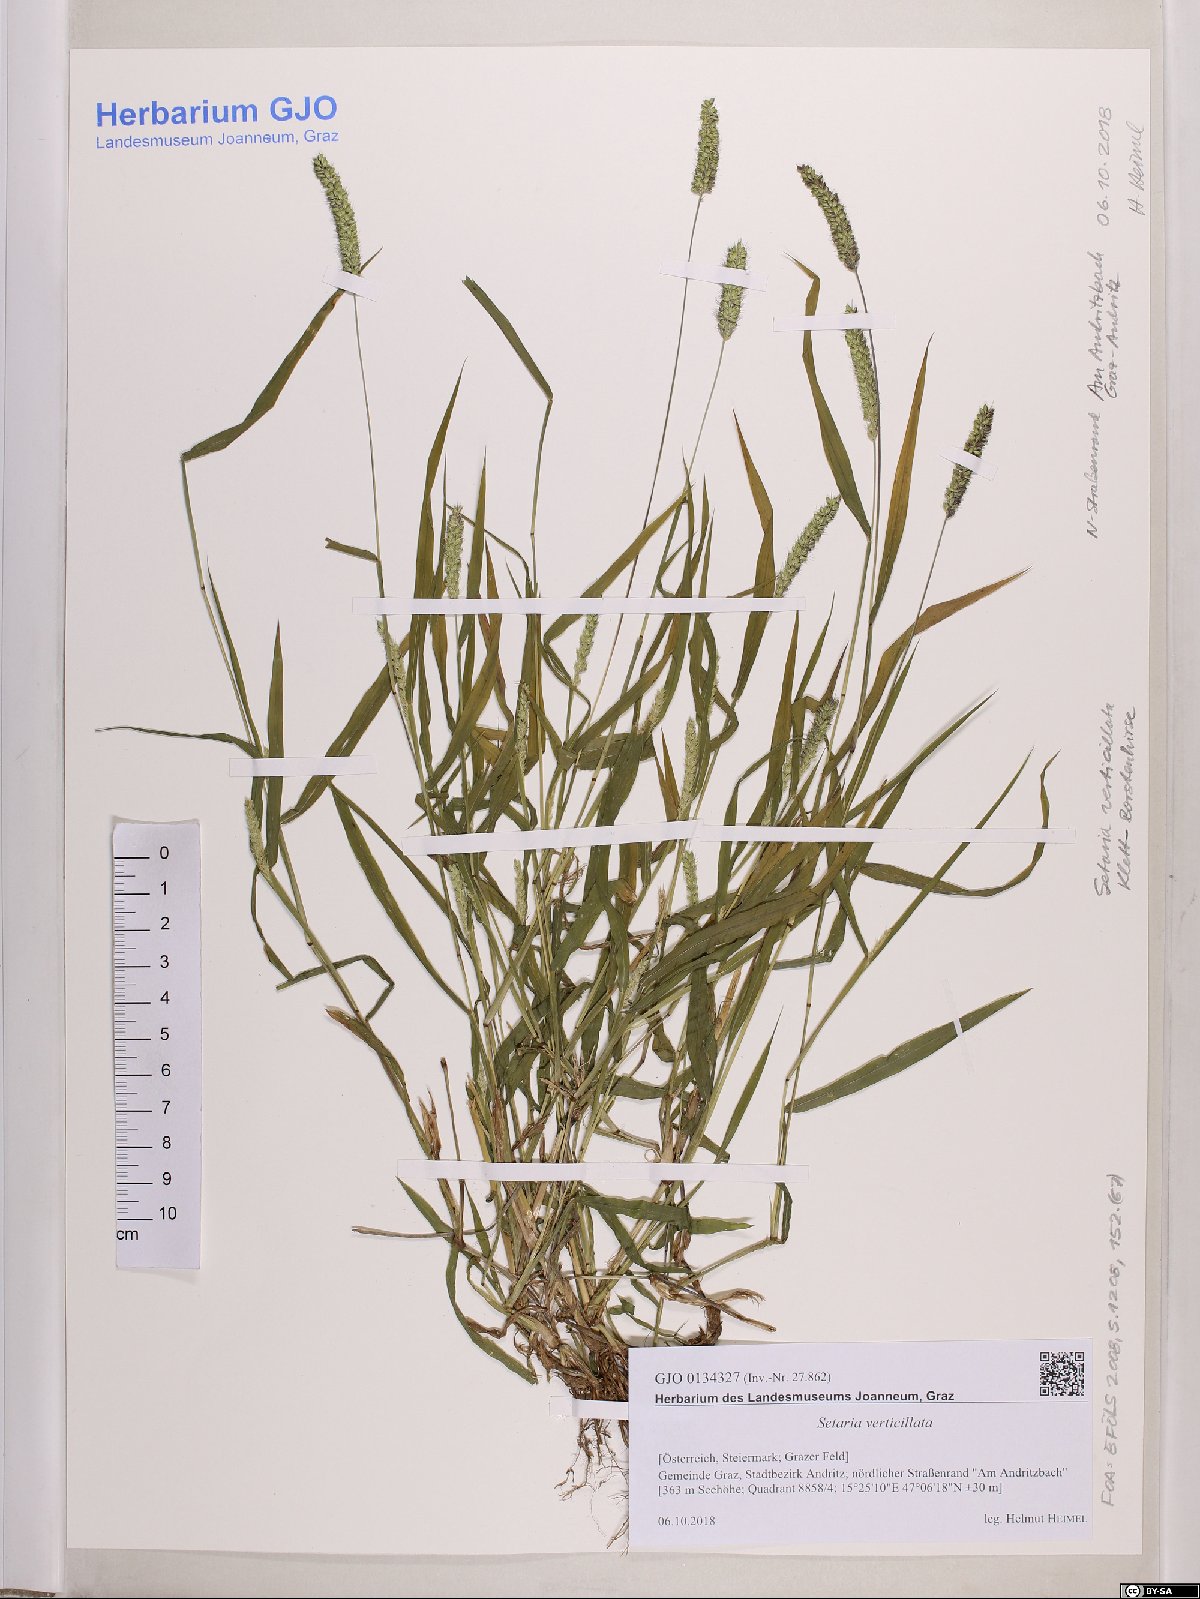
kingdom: Plantae
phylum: Tracheophyta
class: Liliopsida
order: Poales
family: Poaceae
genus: Setaria
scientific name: Setaria verticillata
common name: Hooked bristlegrass
